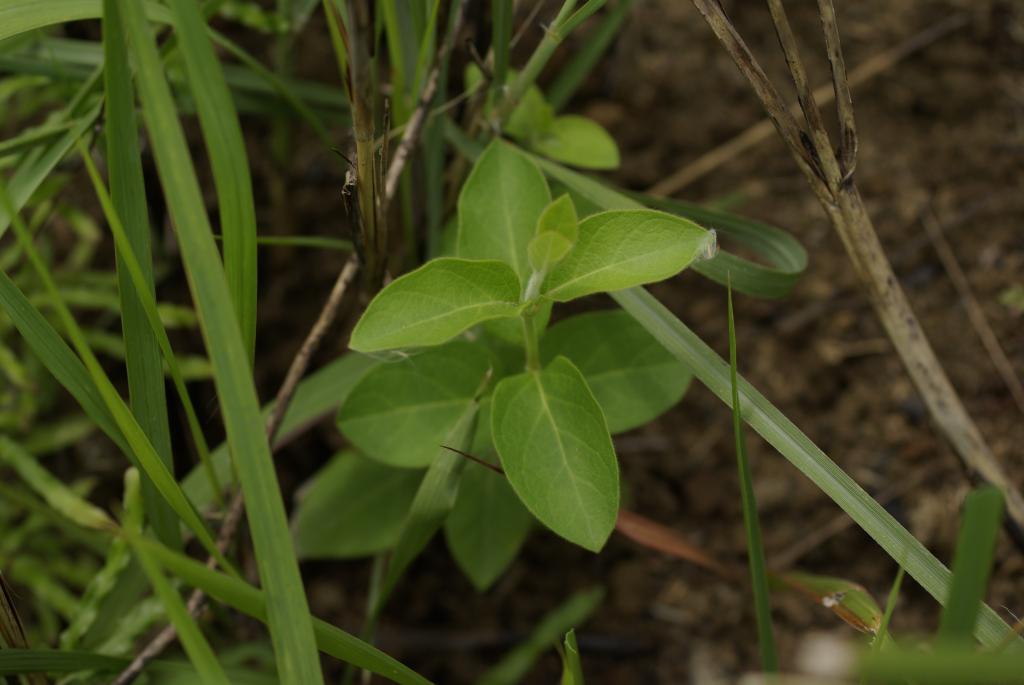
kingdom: Plantae
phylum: Tracheophyta
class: Magnoliopsida
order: Dipsacales
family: Caprifoliaceae
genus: Lonicera
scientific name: Lonicera japonica
